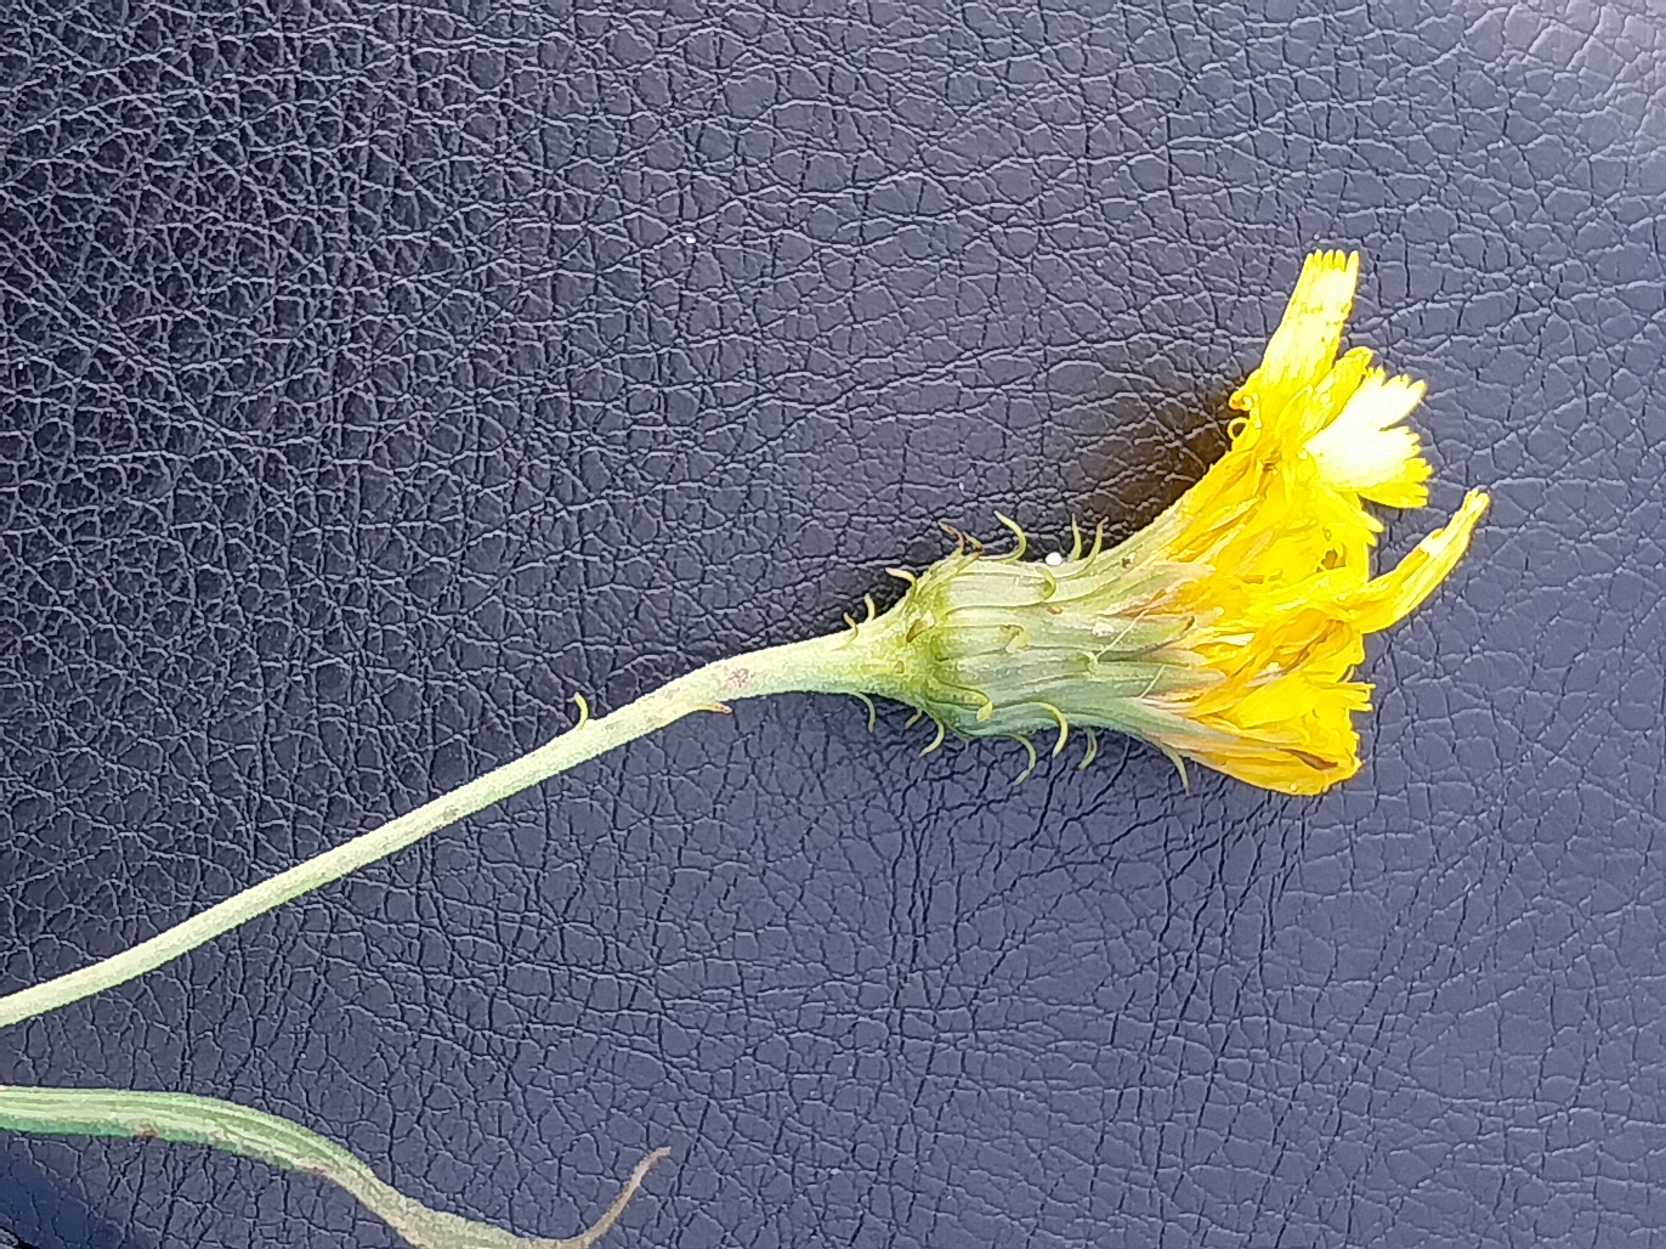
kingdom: Plantae
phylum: Tracheophyta
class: Magnoliopsida
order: Asterales
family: Asteraceae
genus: Hieracium
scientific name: Hieracium umbellatum
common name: Smalbladet høgeurt
